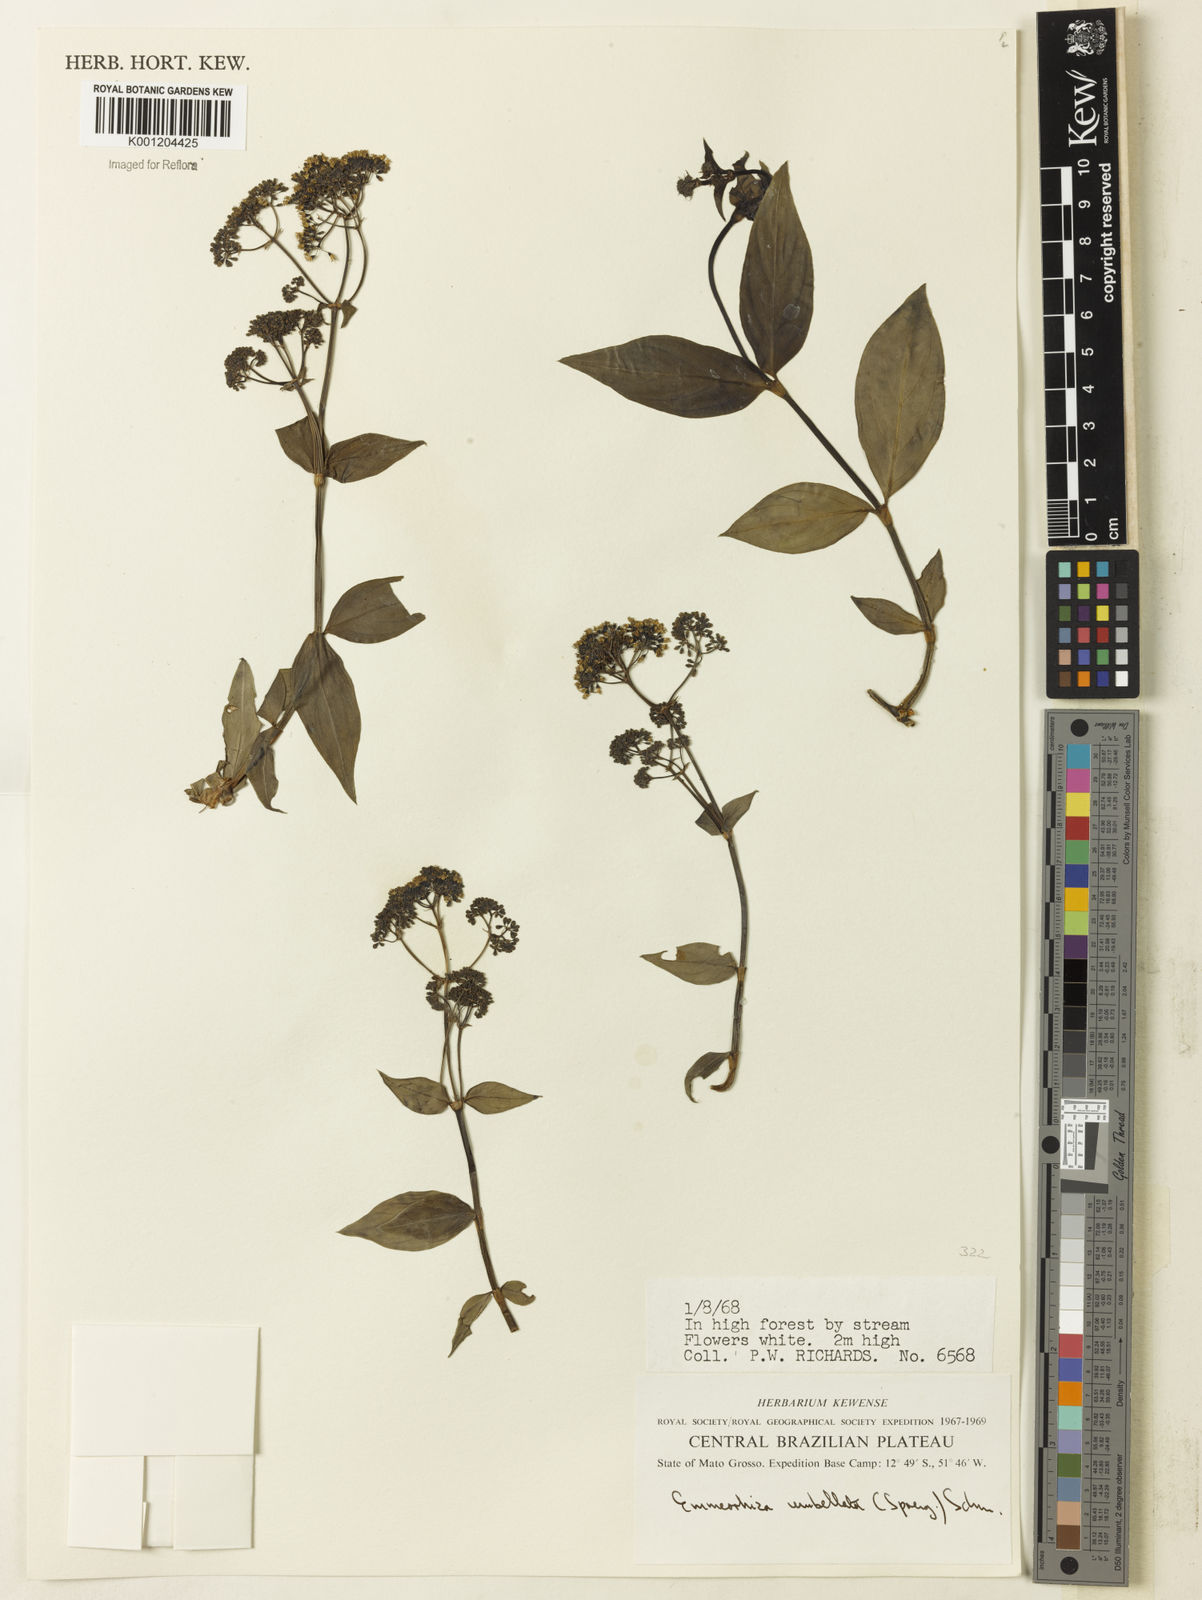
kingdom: Plantae
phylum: Tracheophyta
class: Magnoliopsida
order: Gentianales
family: Rubiaceae
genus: Emmeorhiza
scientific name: Emmeorhiza umbellata
